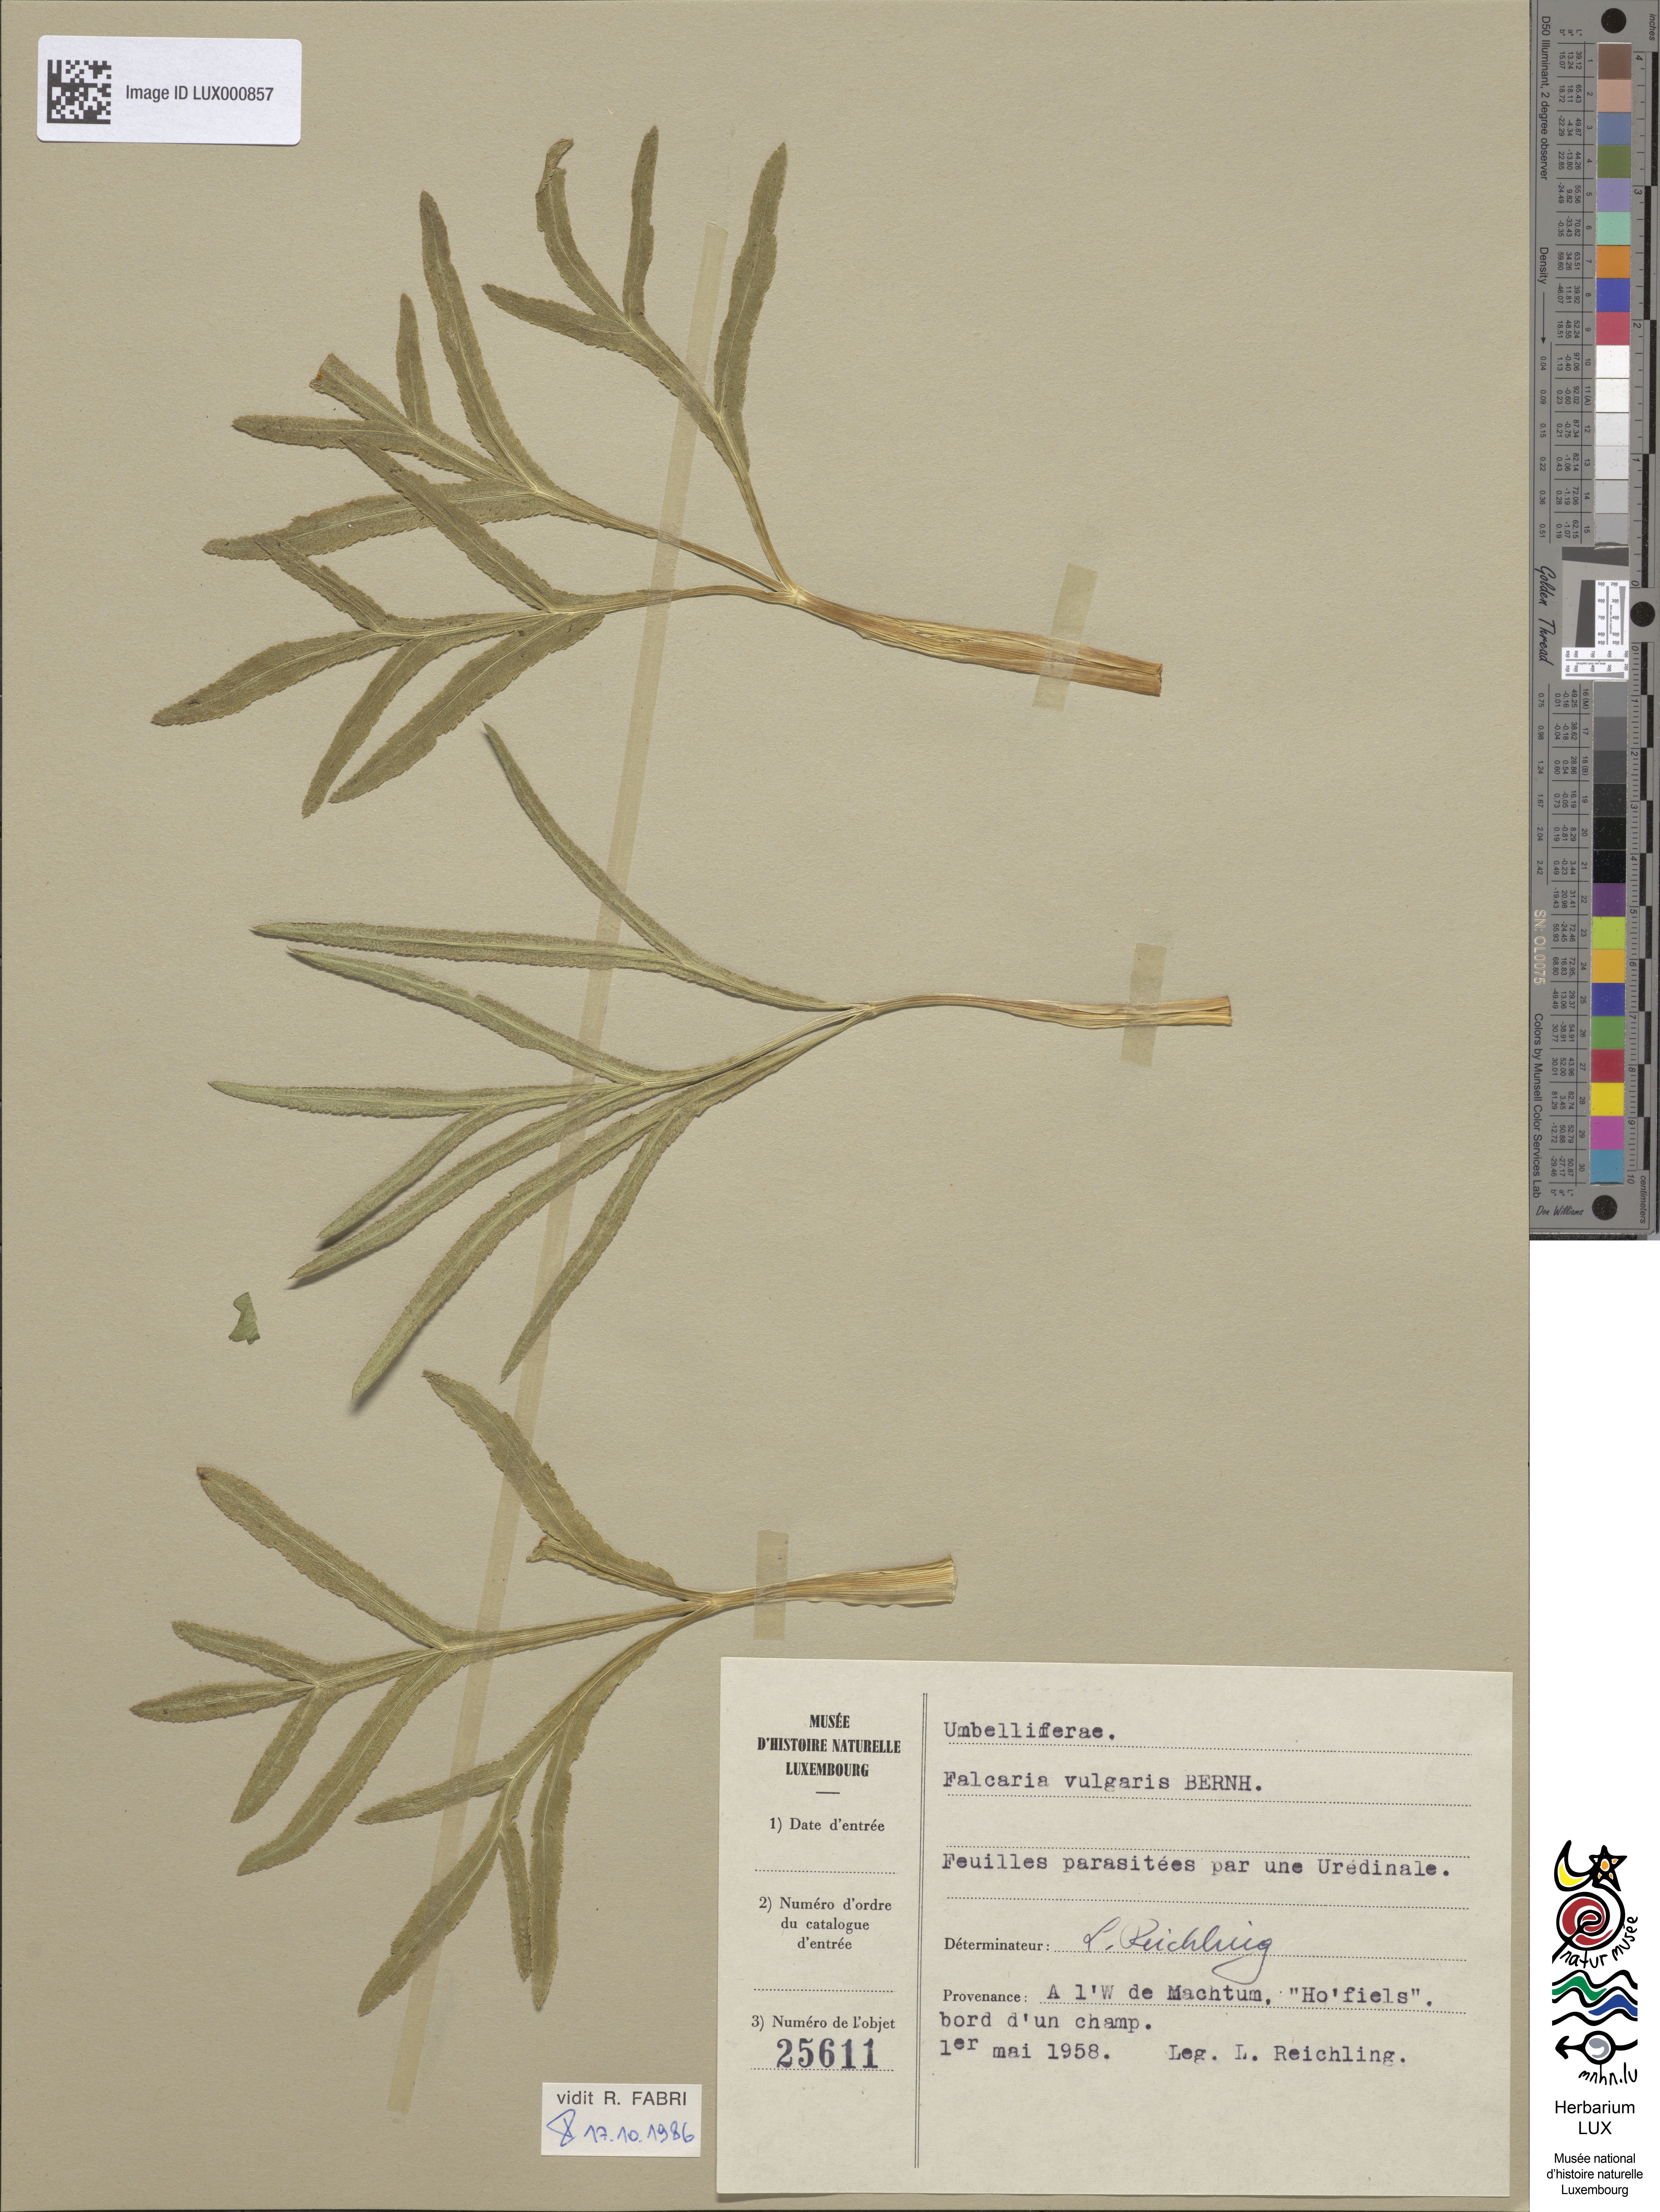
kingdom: Plantae
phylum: Tracheophyta
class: Magnoliopsida
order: Apiales
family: Apiaceae
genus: Falcaria
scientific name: Falcaria vulgaris
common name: Longleaf
